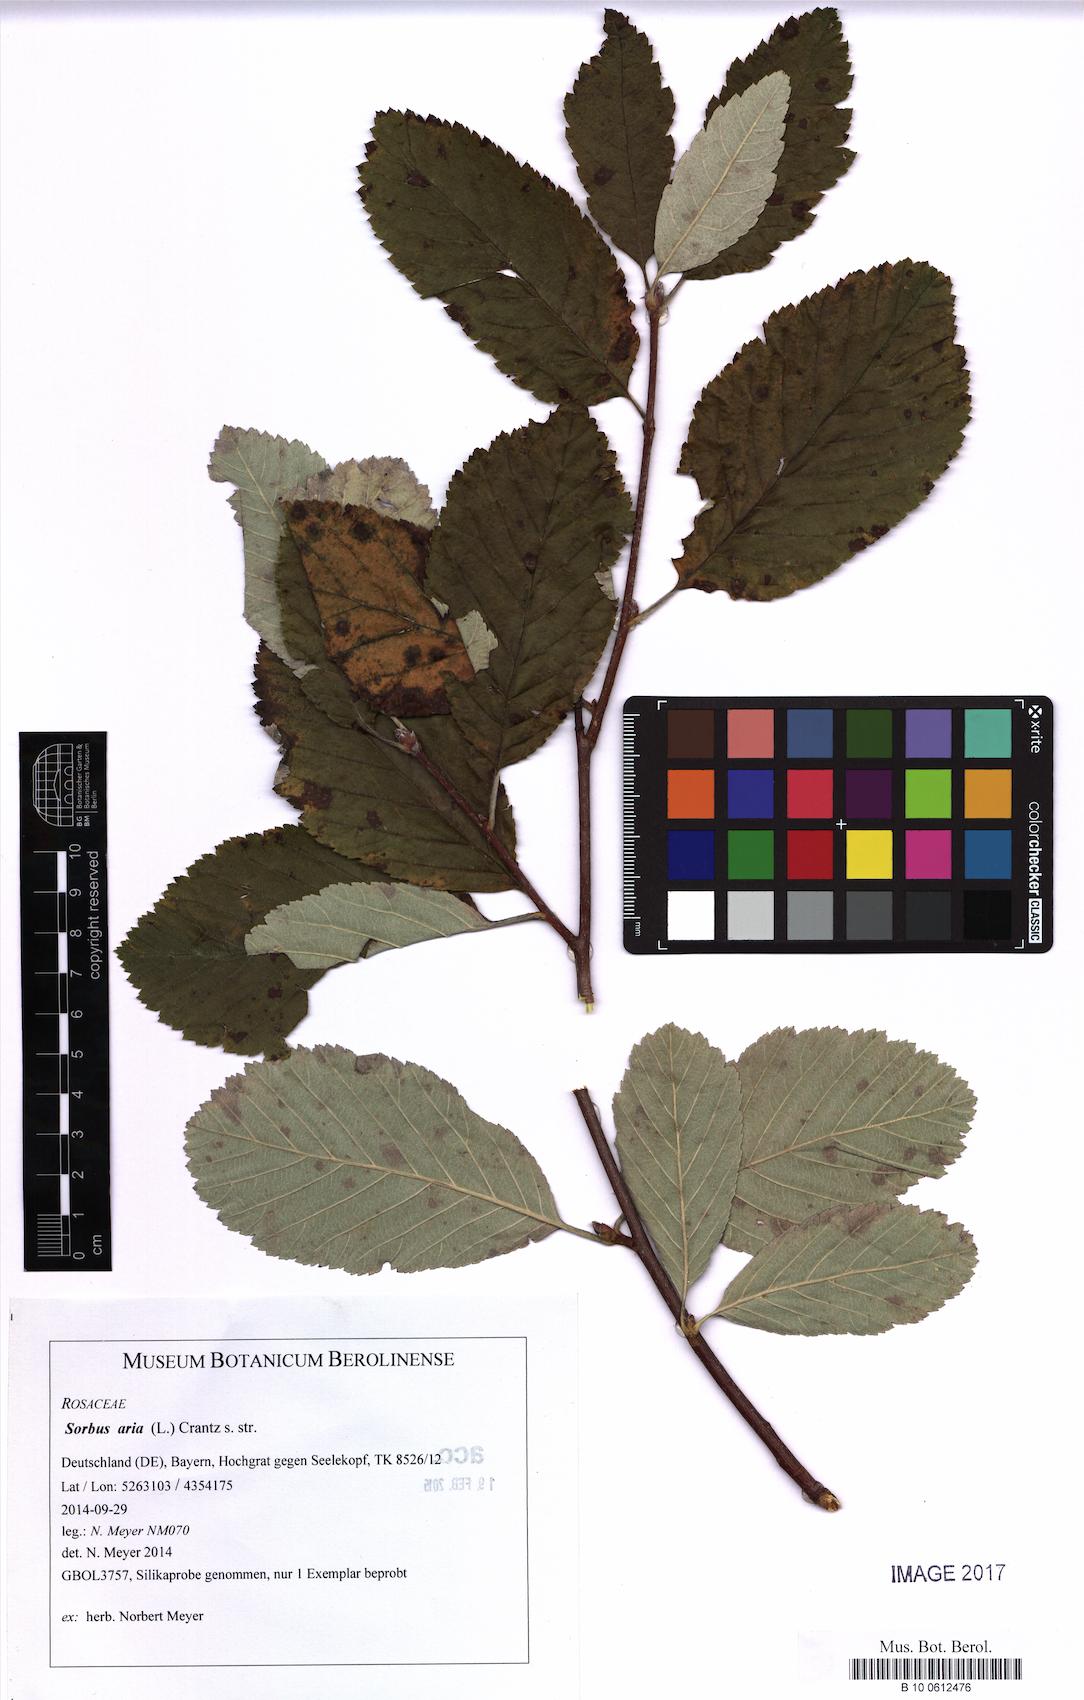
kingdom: Plantae
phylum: Tracheophyta
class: Magnoliopsida
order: Rosales
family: Rosaceae
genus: Aria
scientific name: Aria edulis
